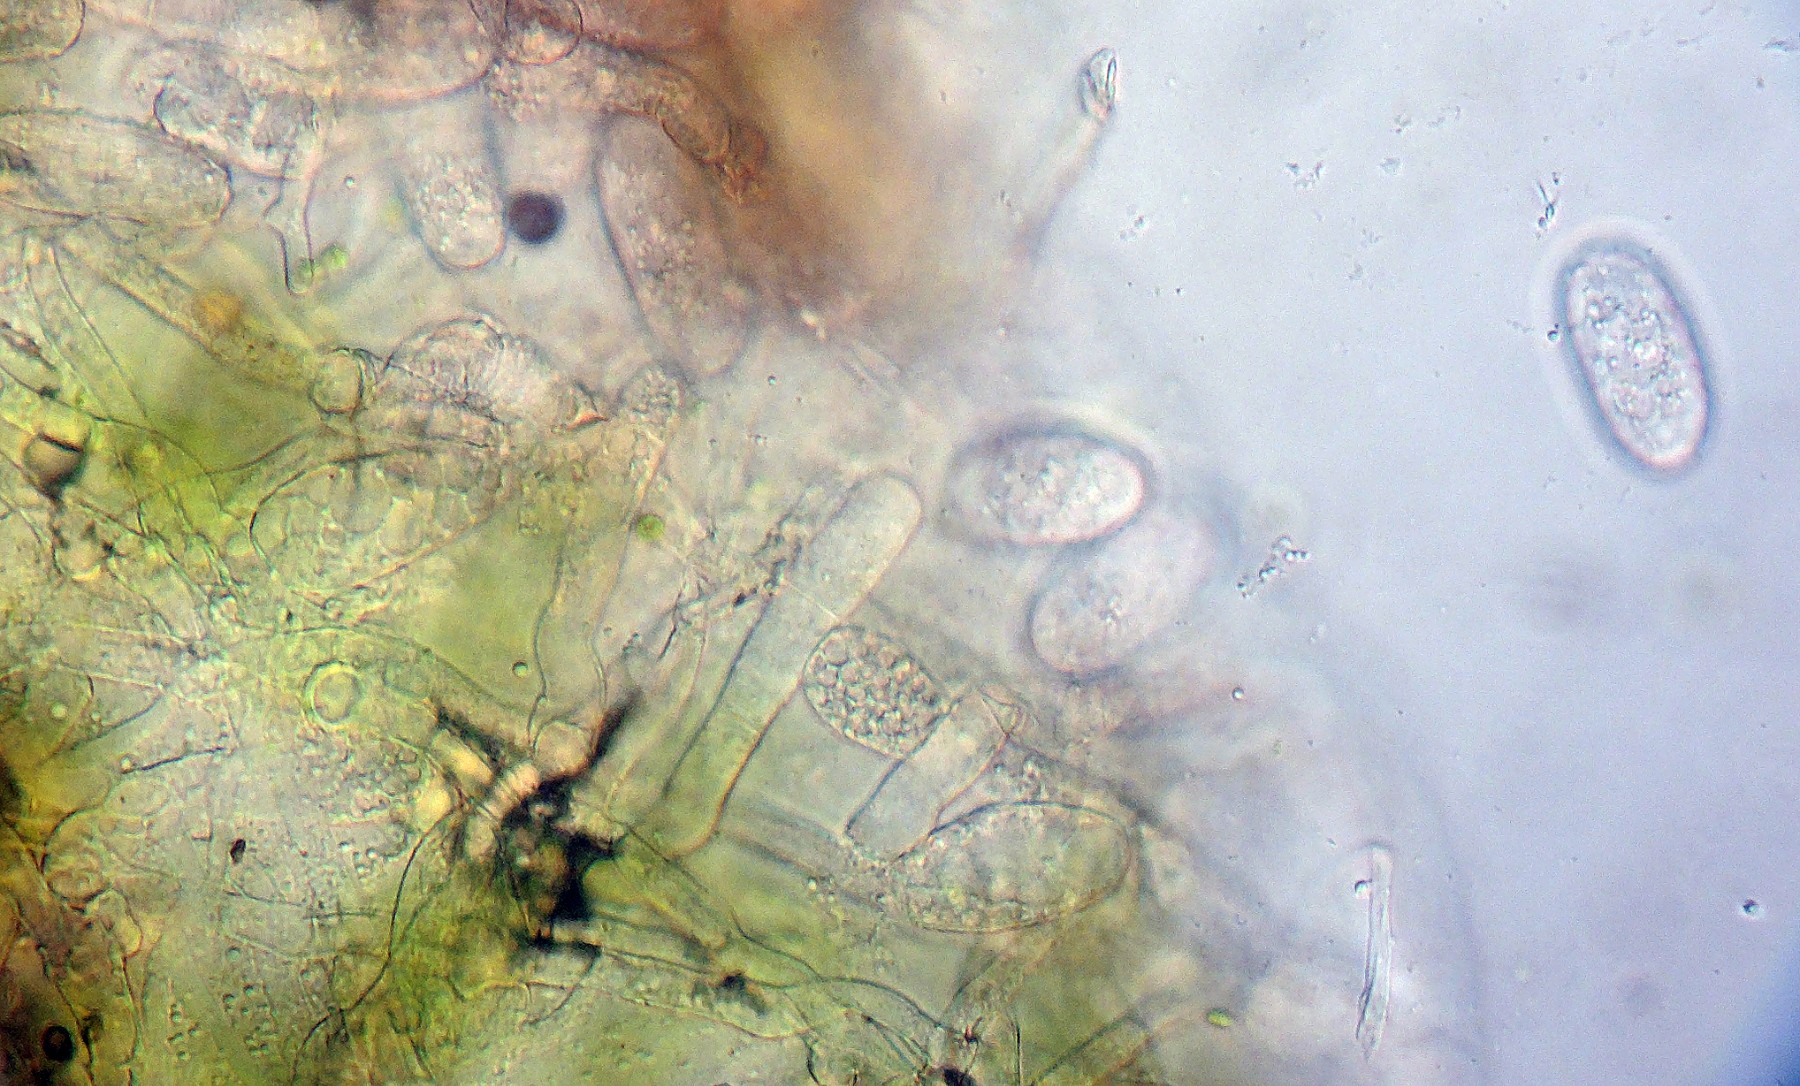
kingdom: Fungi
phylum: Ascomycota
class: Leotiomycetes
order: Helotiales
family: Erysiphaceae
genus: Erysiphe
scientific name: Erysiphe lonicerae
